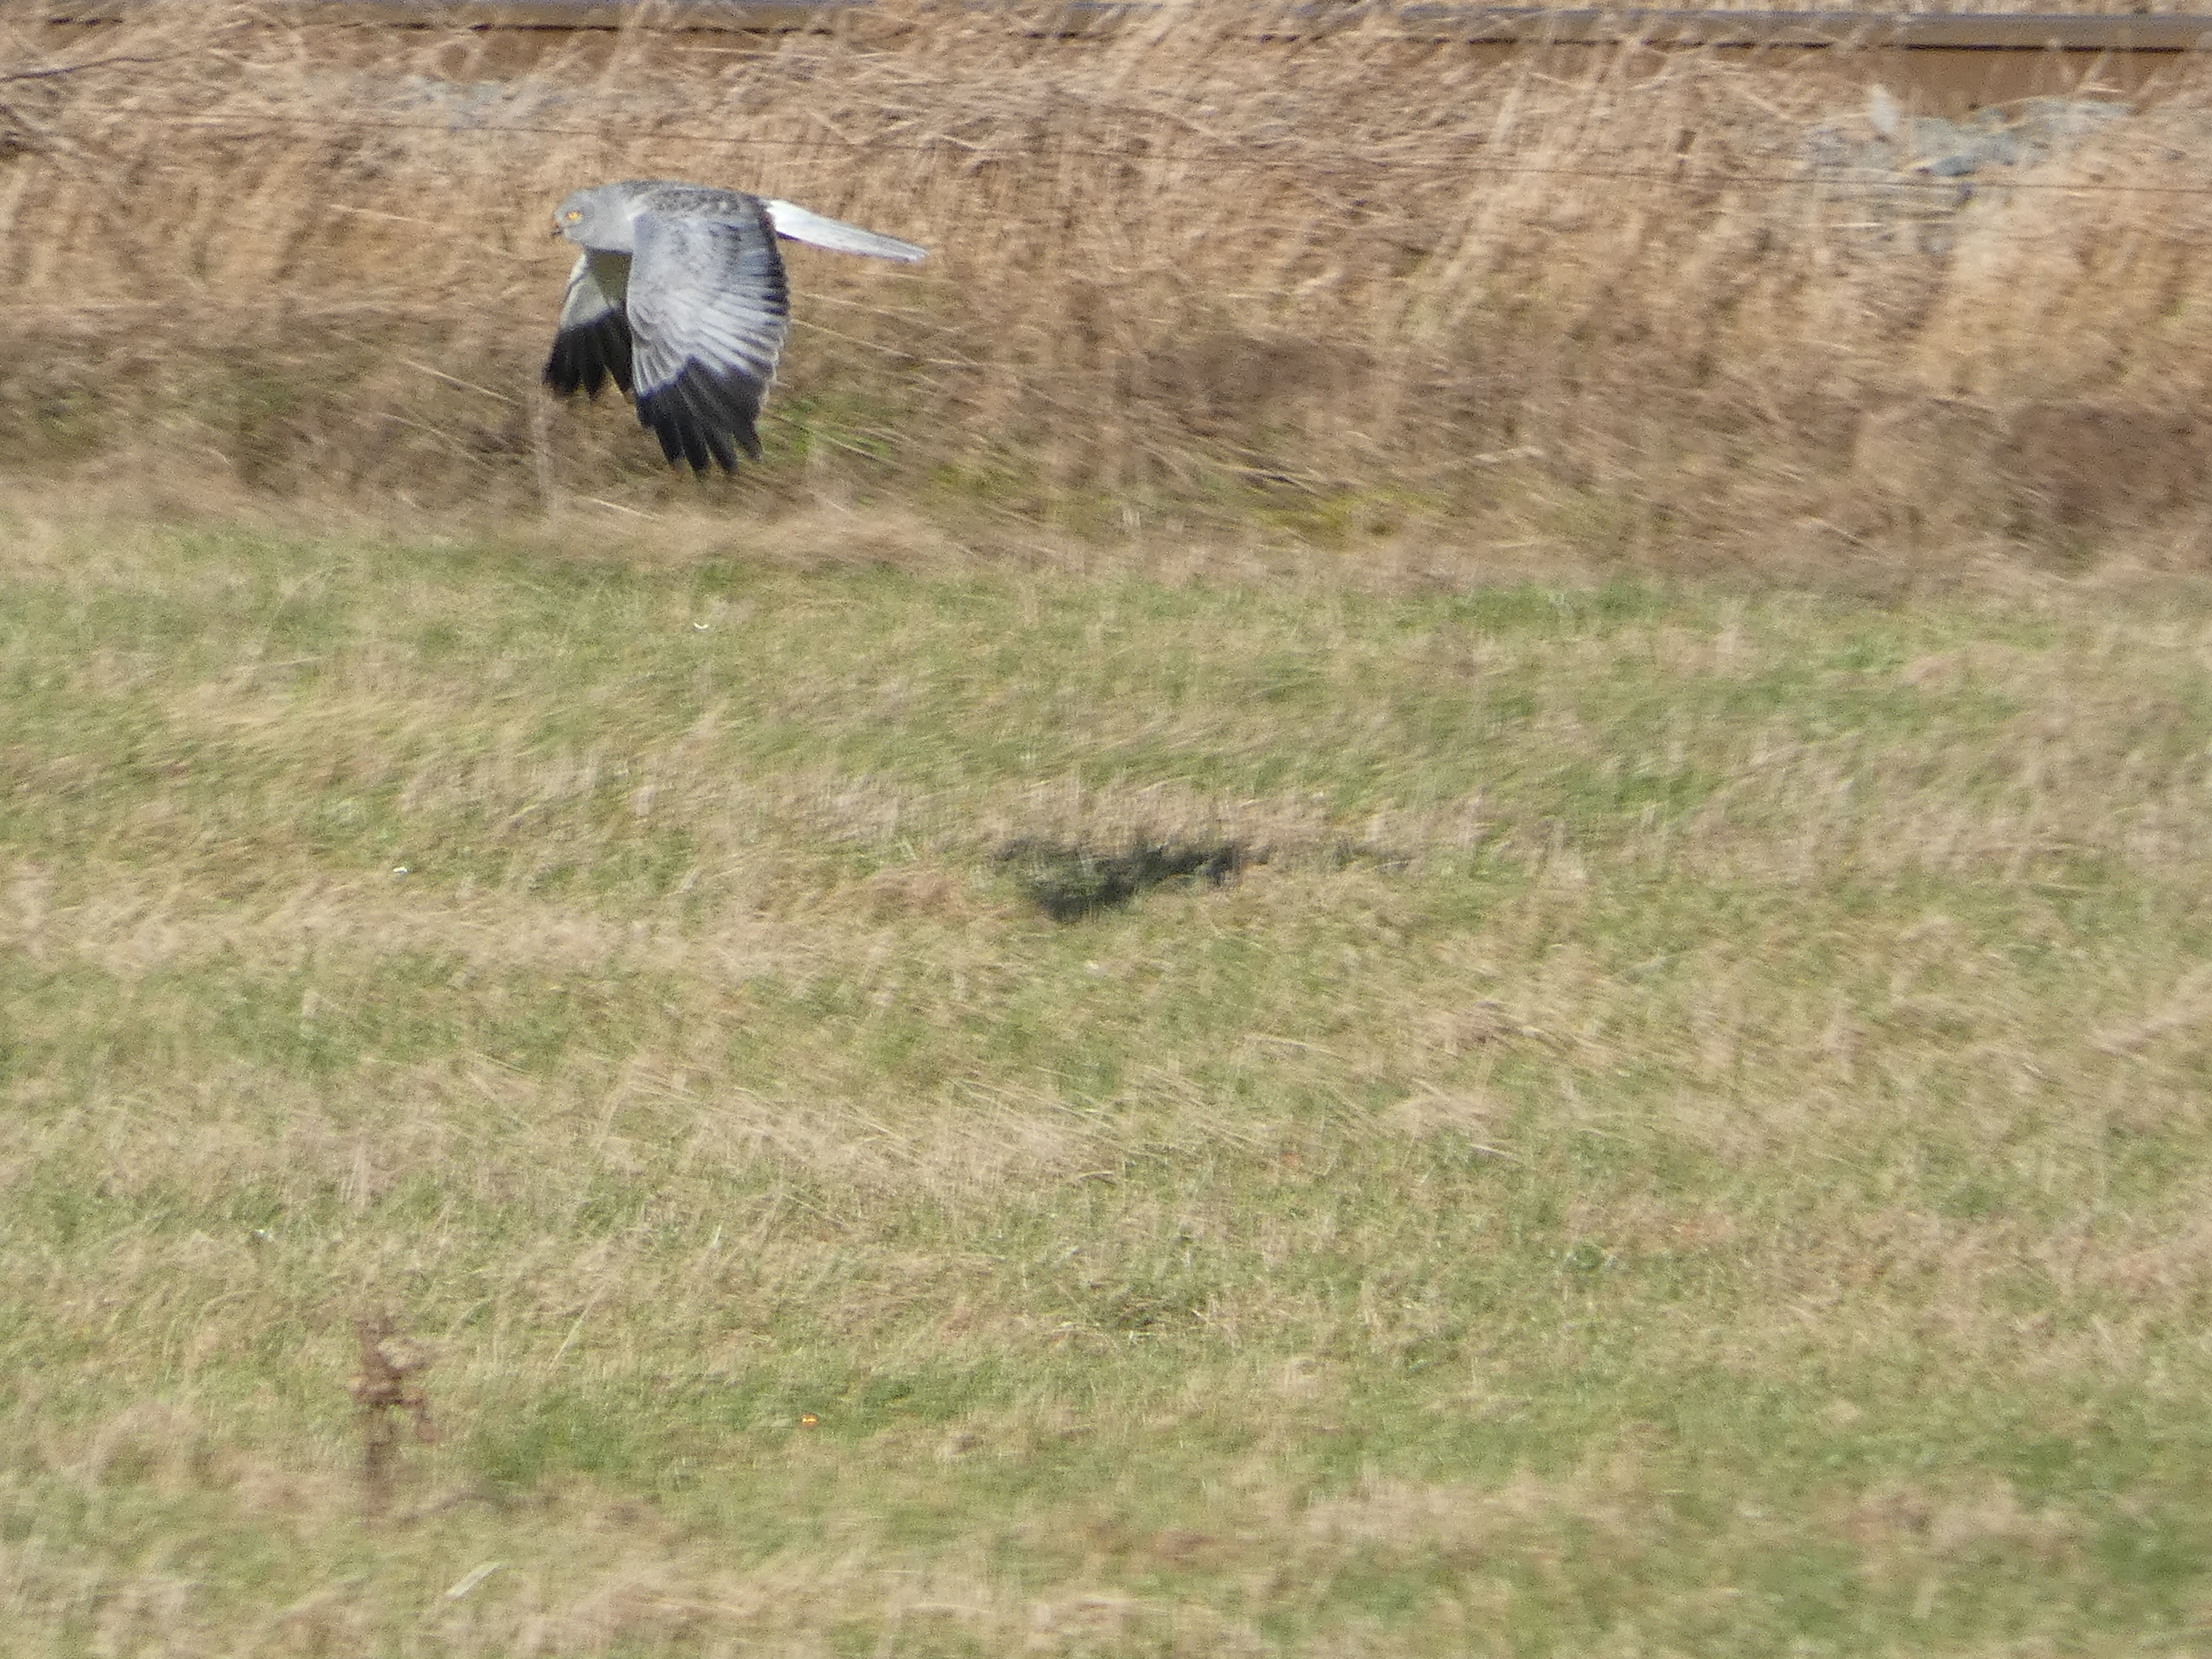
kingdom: Animalia
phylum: Chordata
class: Aves
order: Accipitriformes
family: Accipitridae
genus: Circus
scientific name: Circus cyaneus
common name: Blå kærhøg
